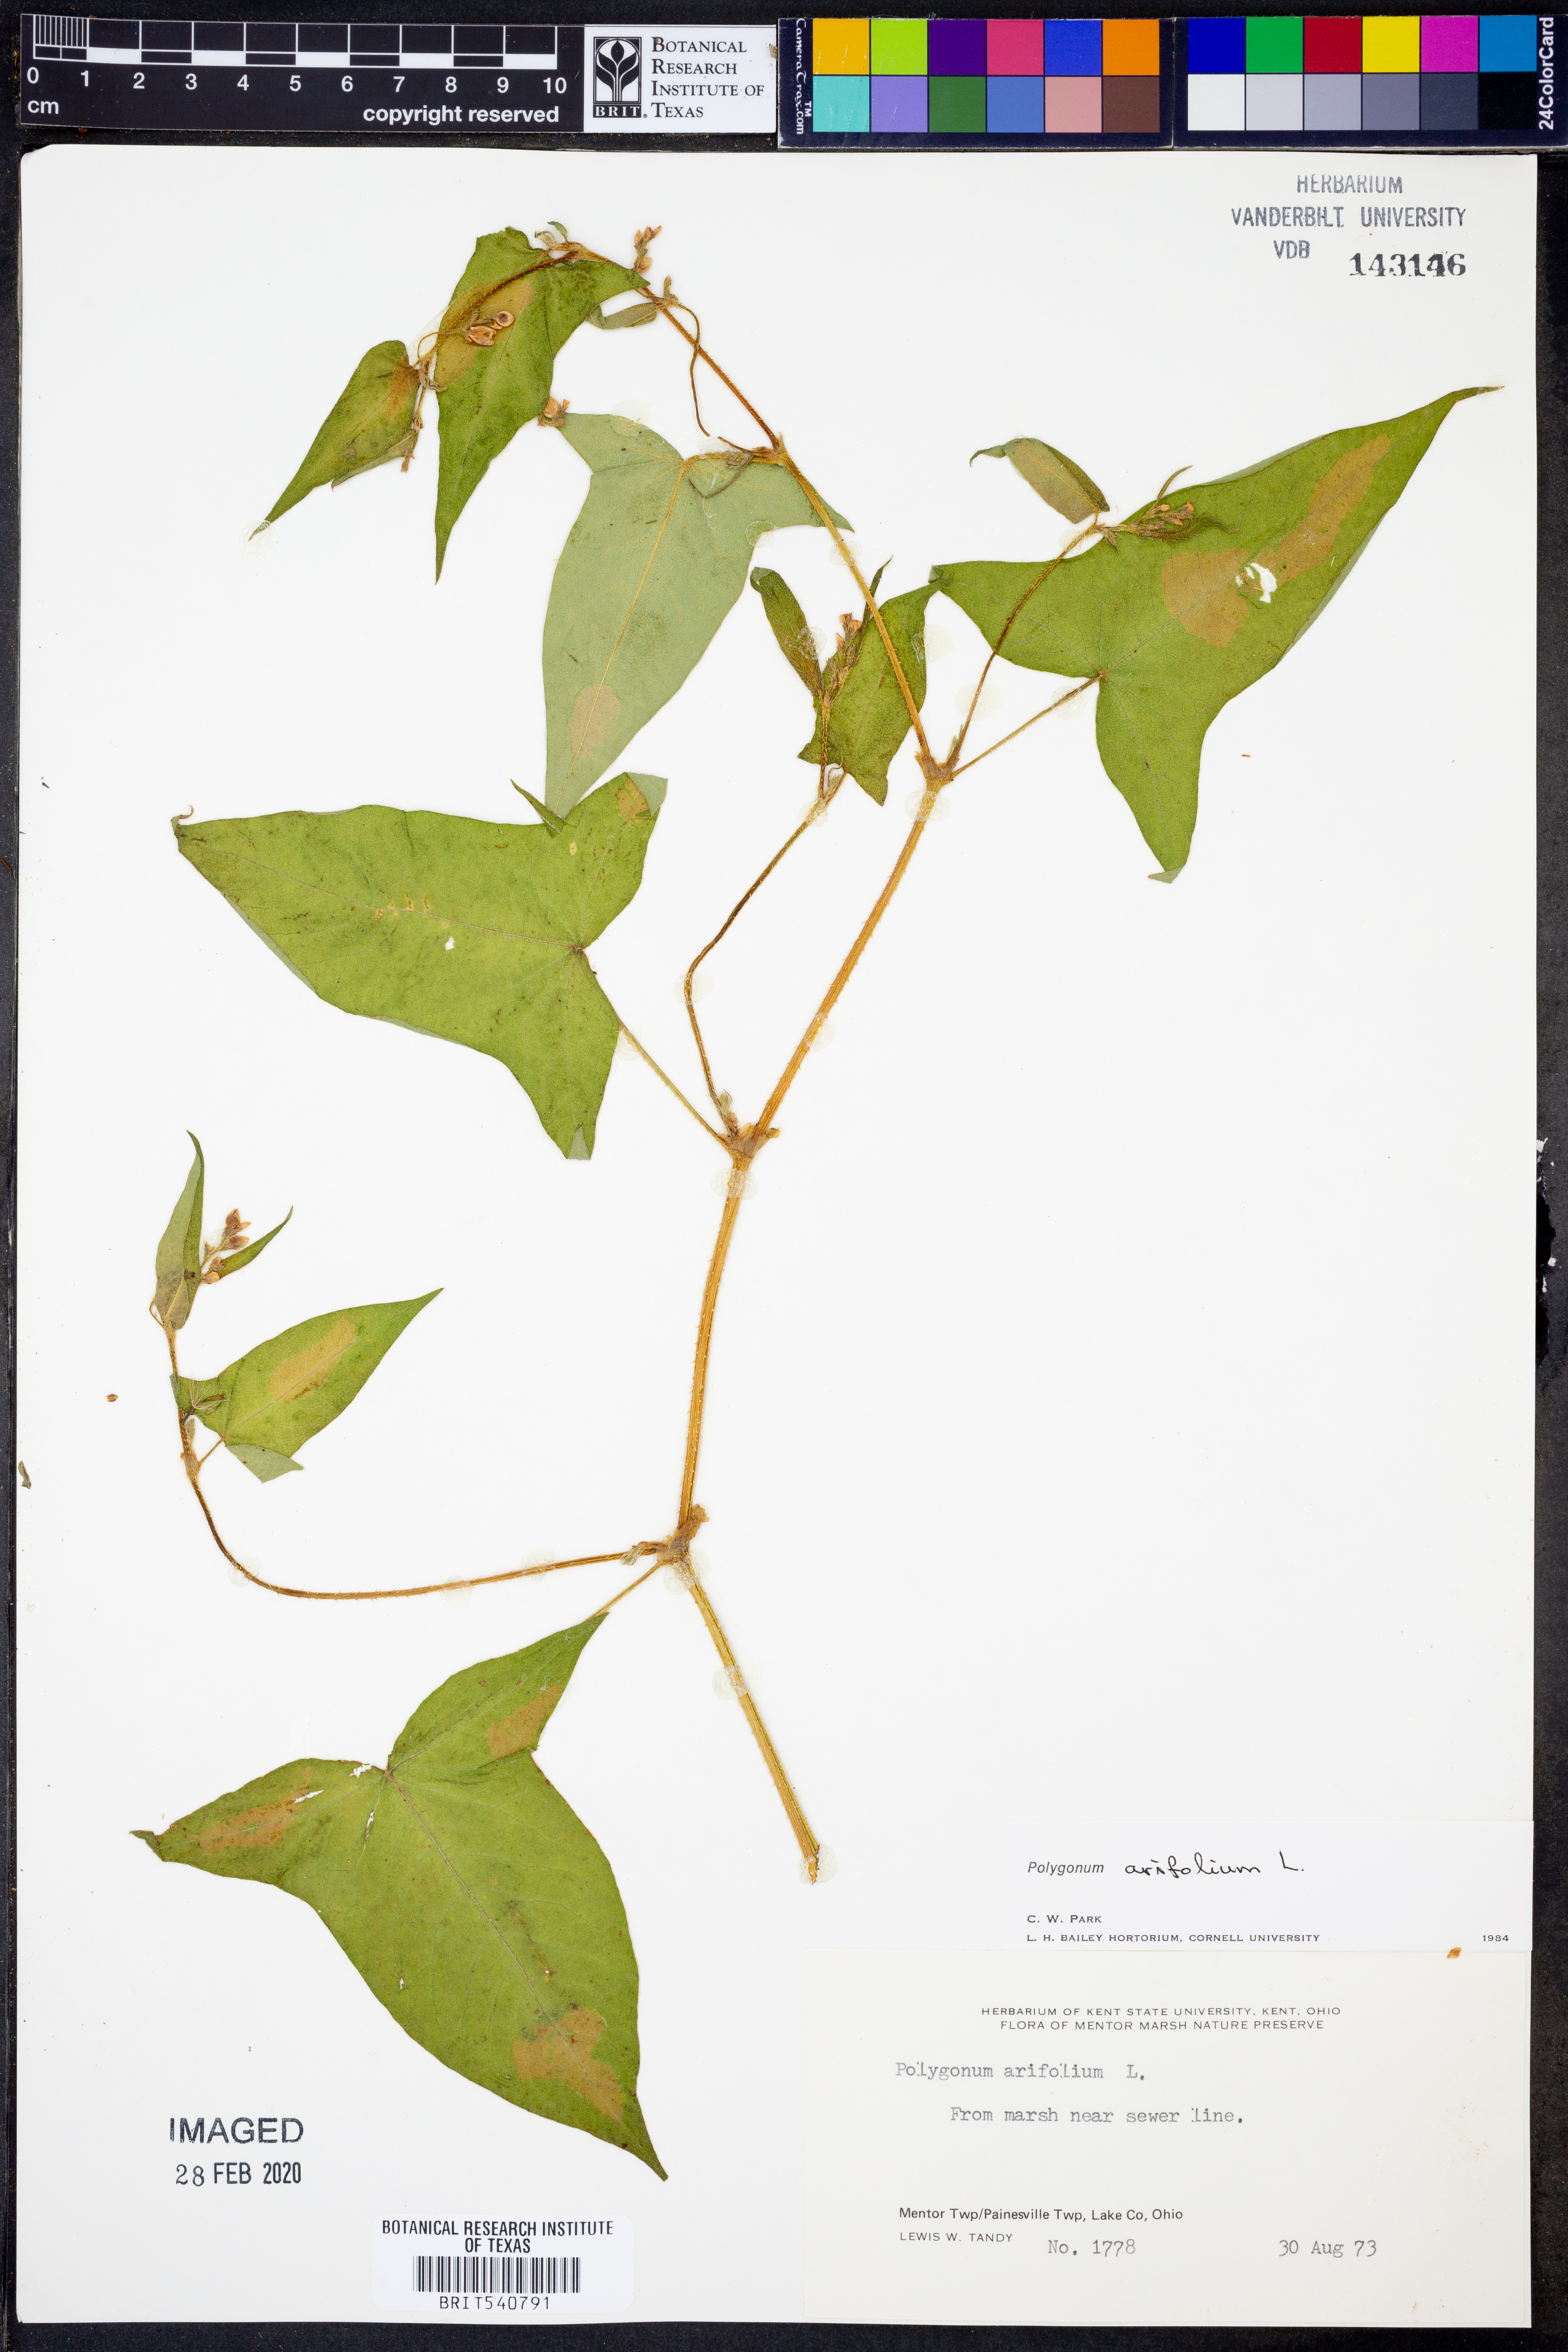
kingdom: Plantae
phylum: Tracheophyta
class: Magnoliopsida
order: Caryophyllales
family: Polygonaceae
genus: Persicaria
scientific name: Persicaria arifolia
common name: Halberd-leaved tear-thumb
